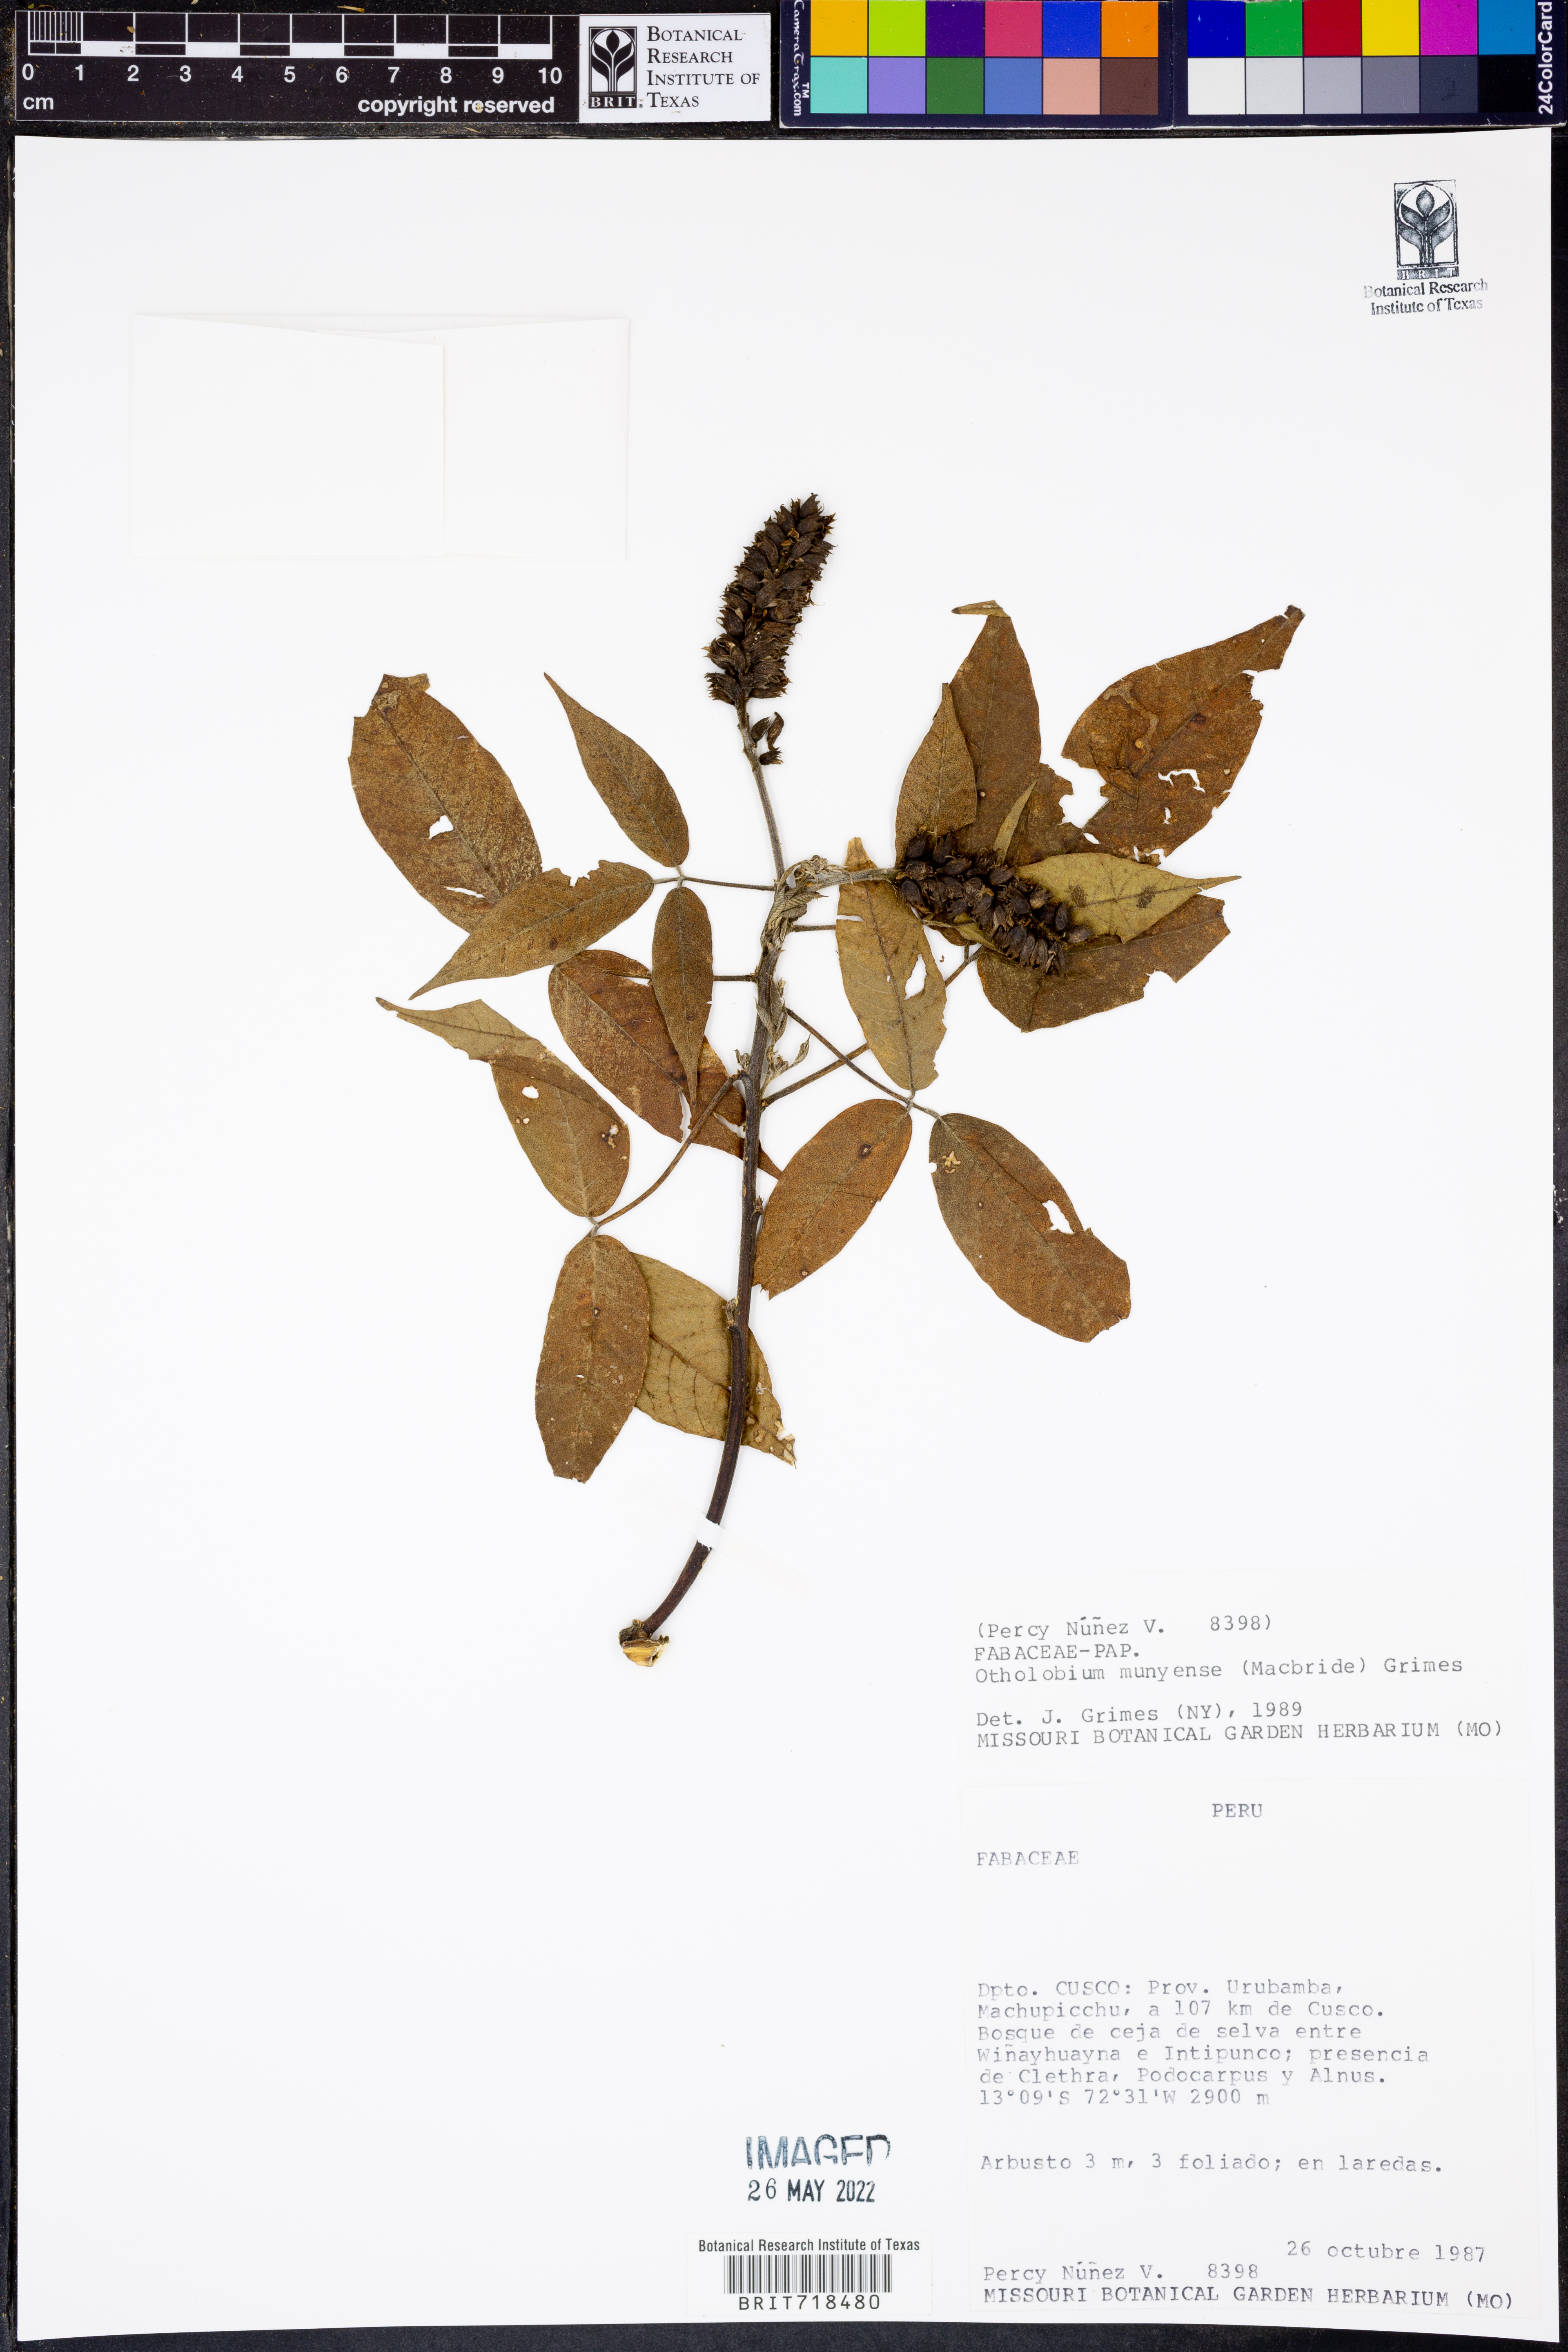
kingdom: Plantae
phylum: Tracheophyta
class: Magnoliopsida
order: Fabales
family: Fabaceae
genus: Otholobium
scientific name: Otholobium
